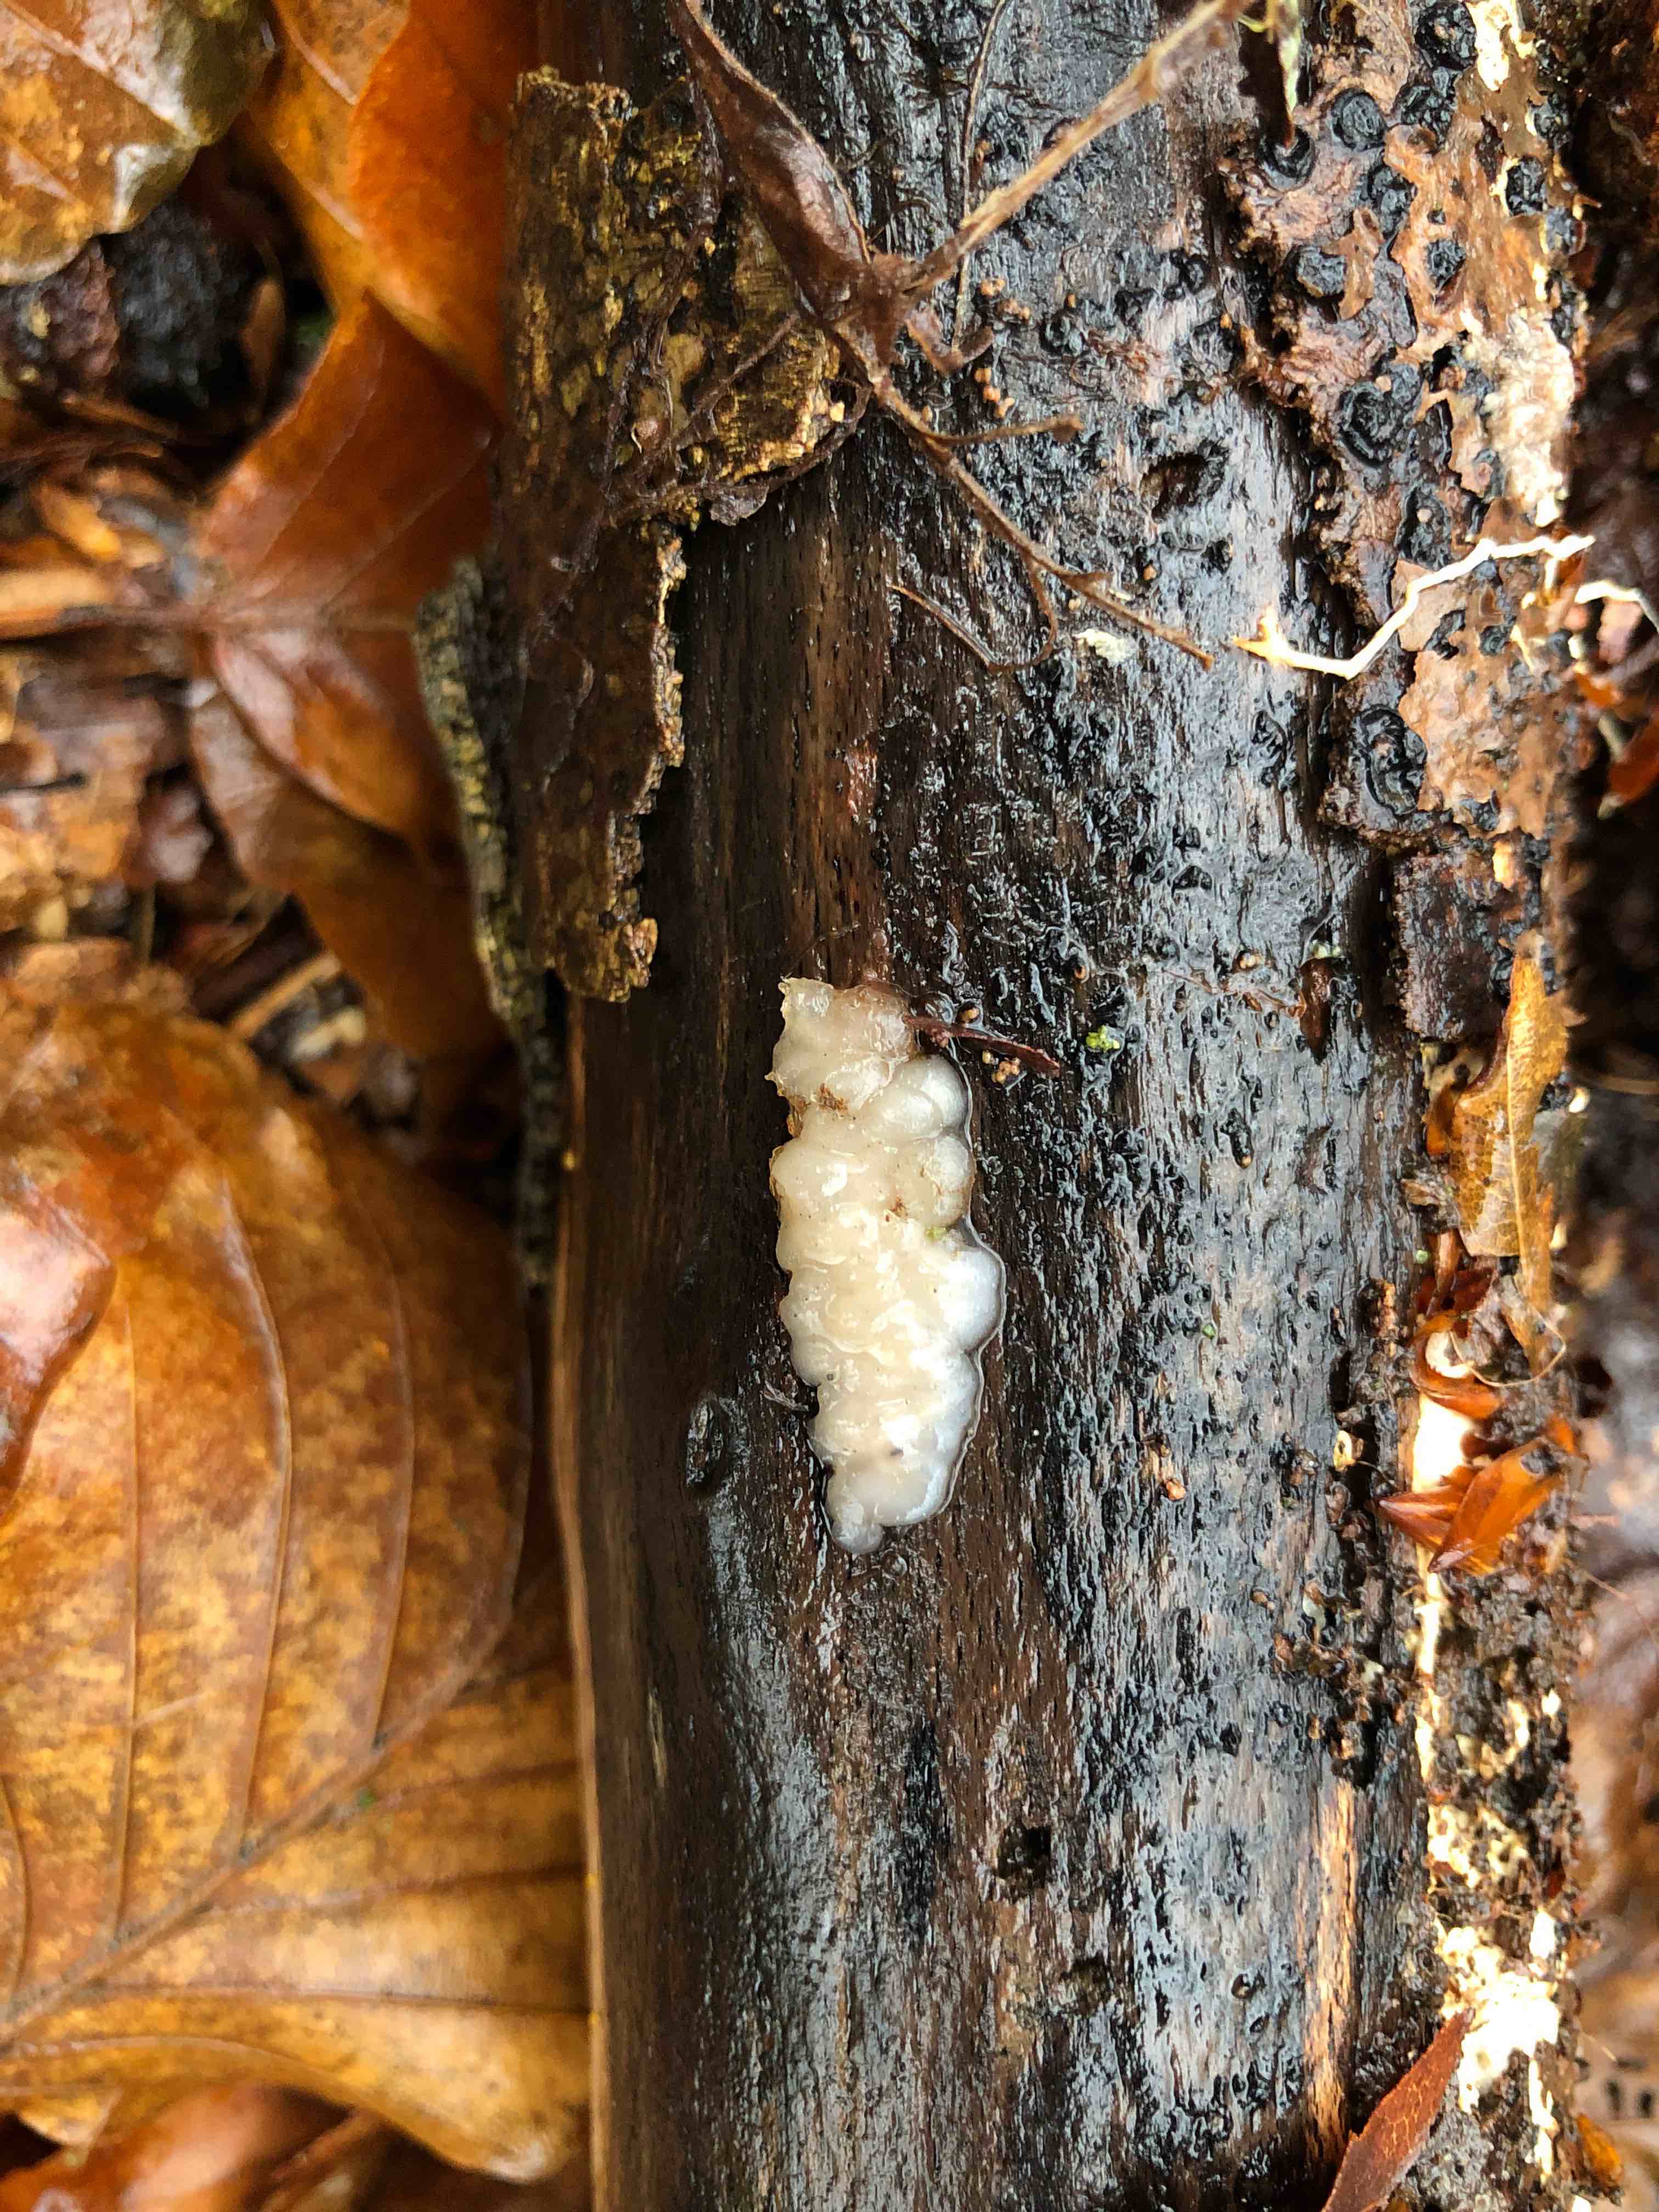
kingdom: Fungi
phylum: Basidiomycota
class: Agaricomycetes
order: Auriculariales
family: Auriculariaceae
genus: Exidia
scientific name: Exidia thuretiana
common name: hvidlig bævretop
